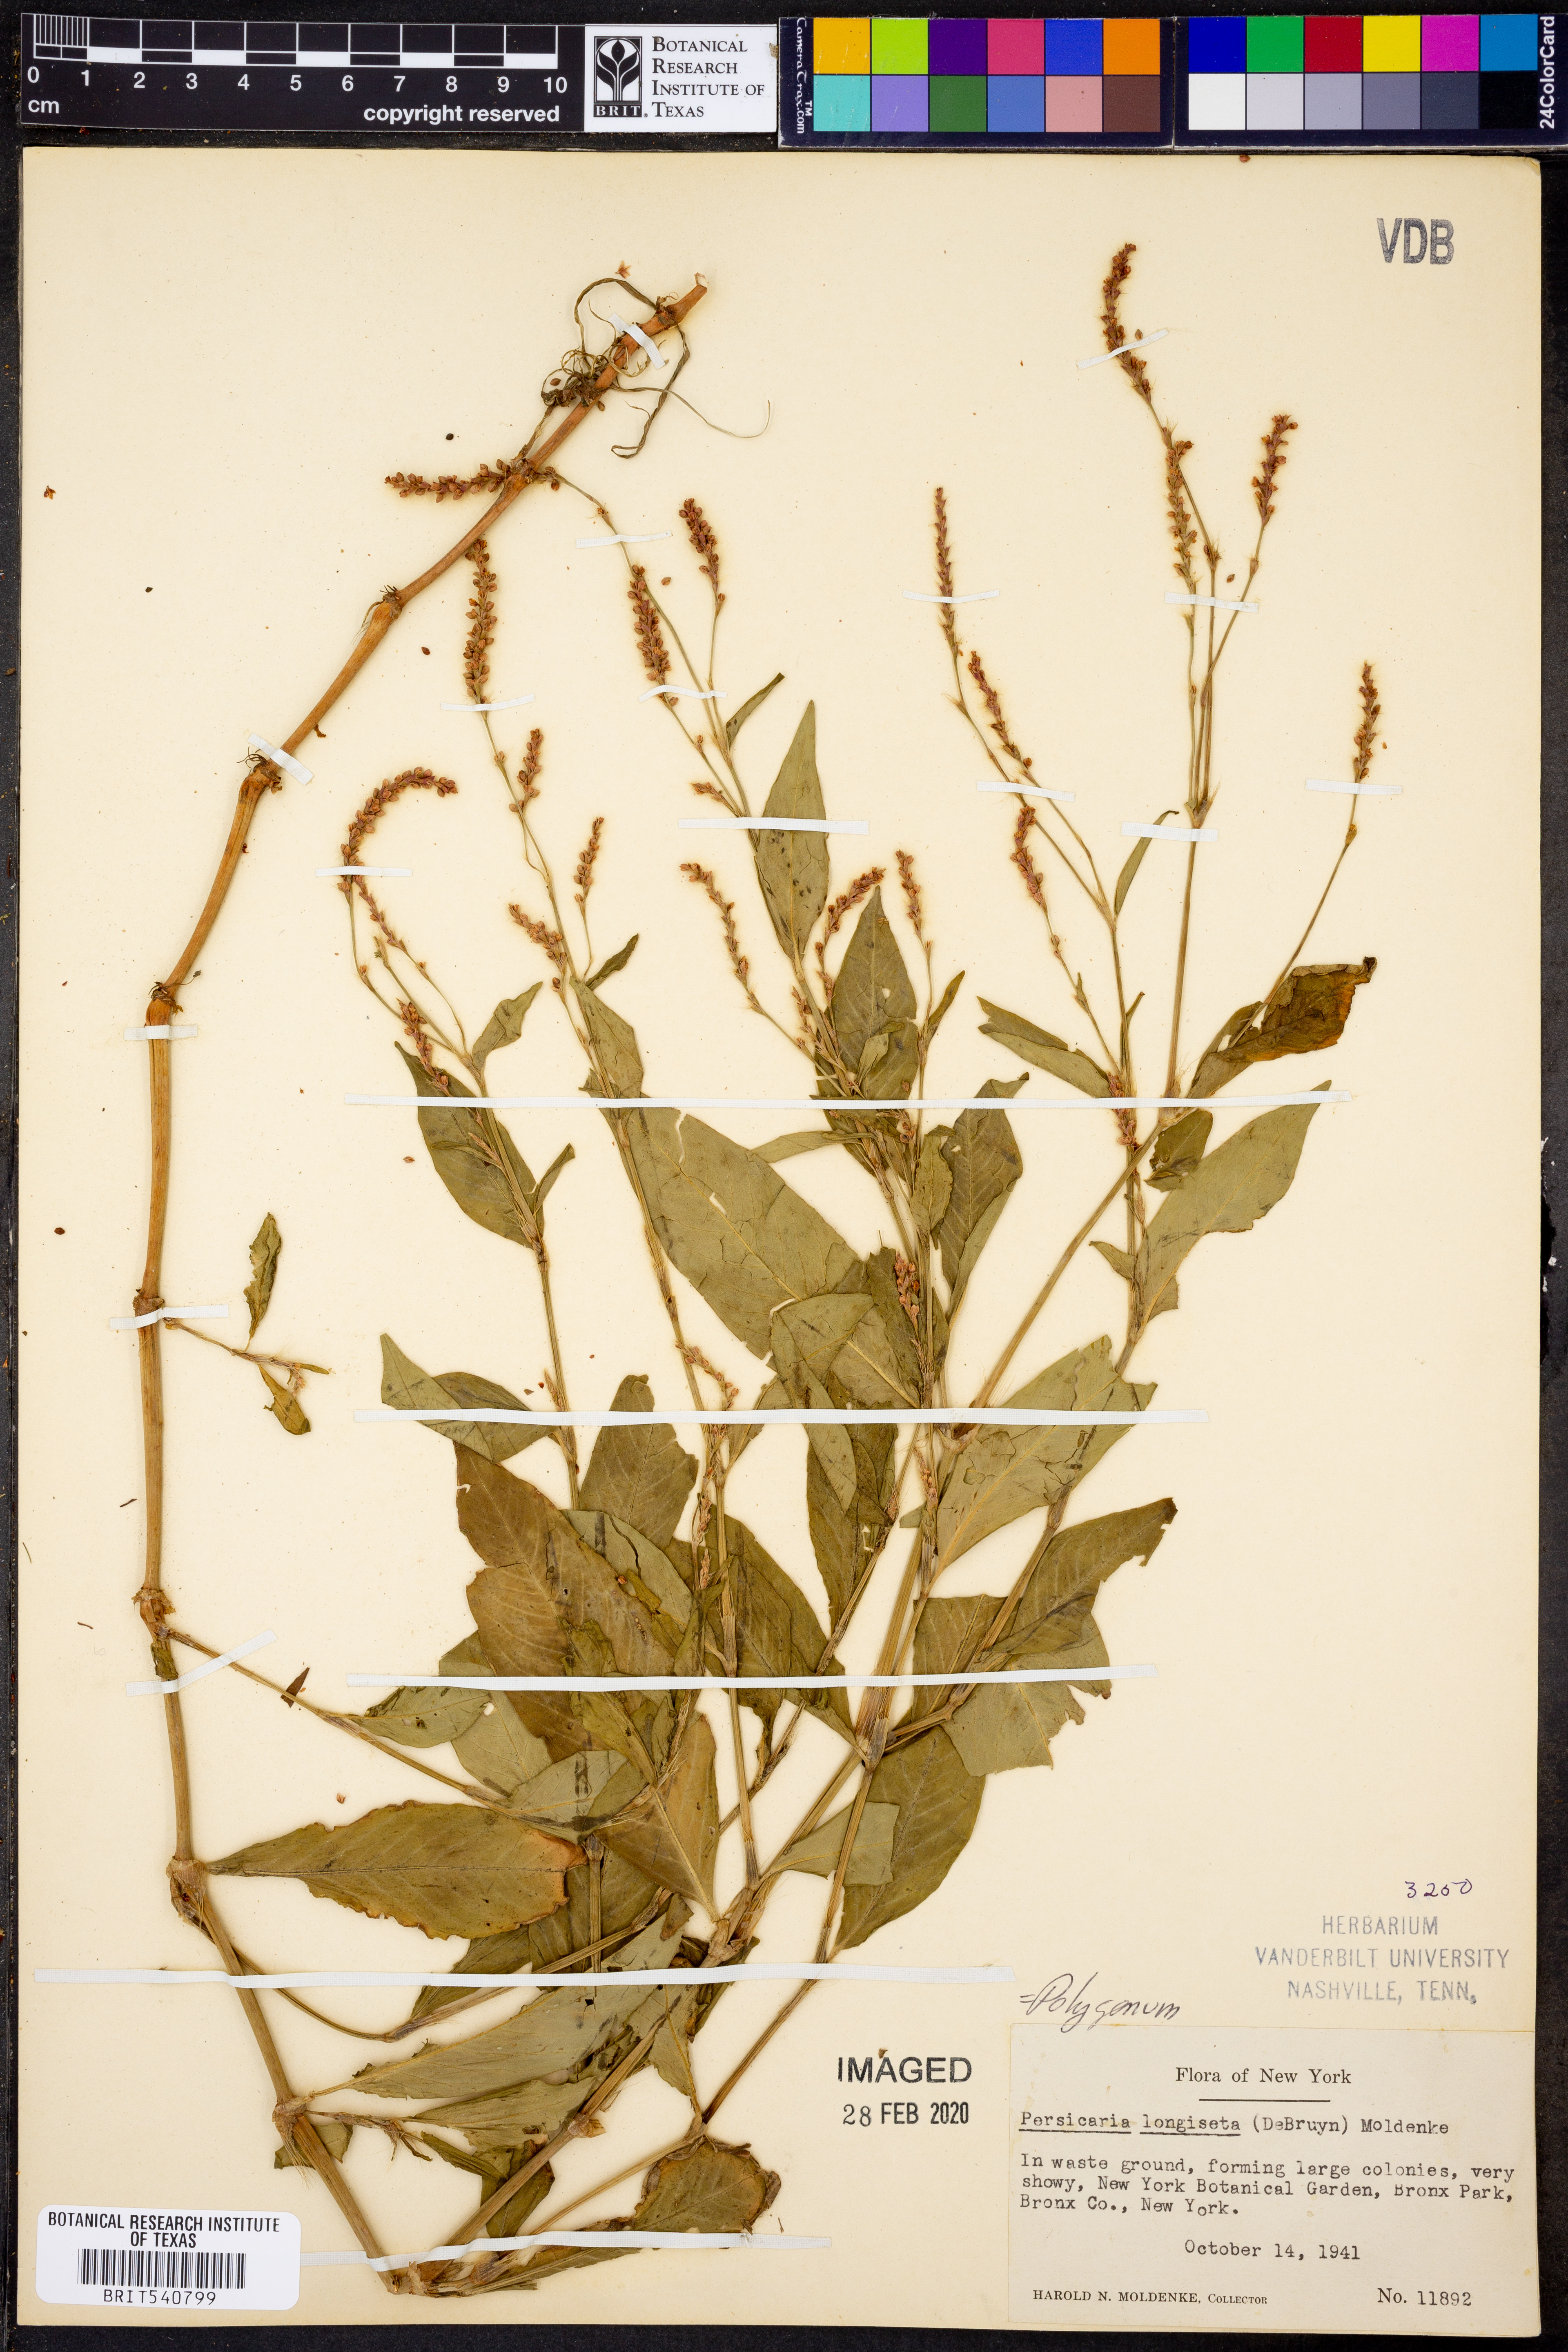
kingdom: Plantae
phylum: Tracheophyta
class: Magnoliopsida
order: Caryophyllales
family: Polygonaceae
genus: Persicaria
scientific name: Persicaria longiseta
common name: Bristly lady's-thumb
